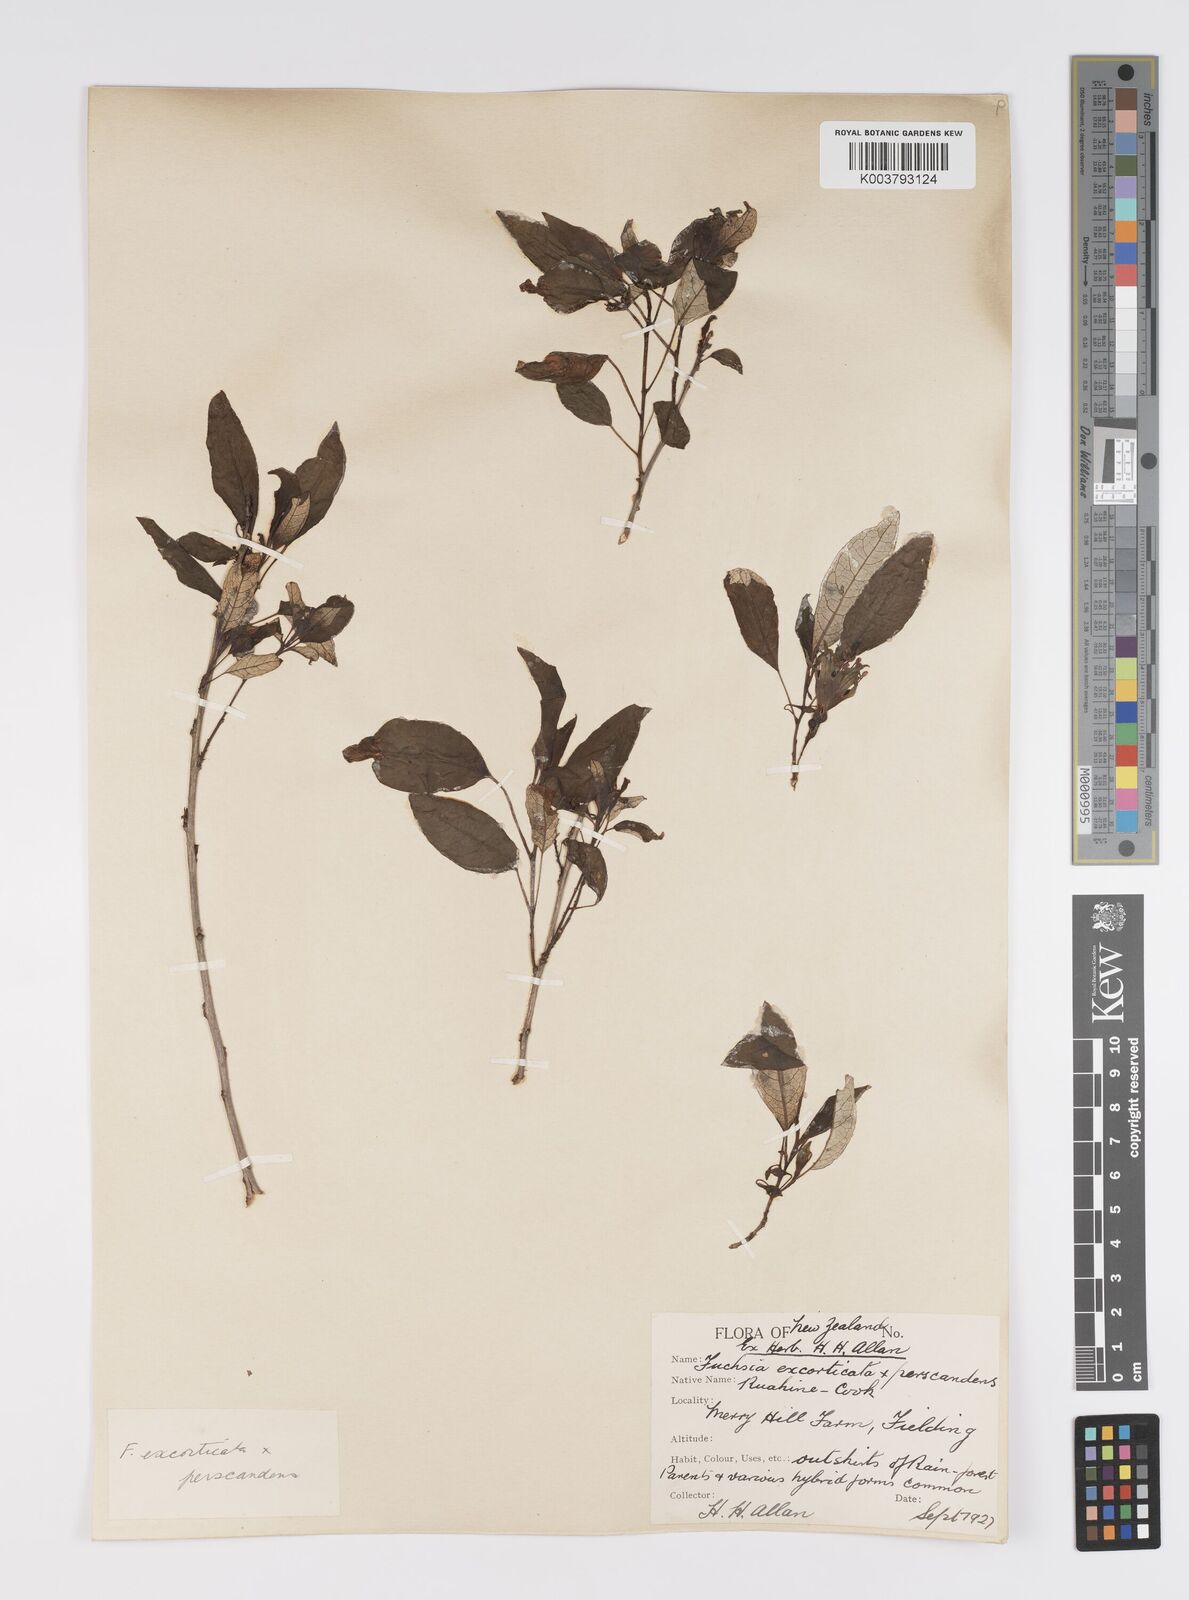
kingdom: Plantae
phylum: Tracheophyta
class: Magnoliopsida
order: Myrtales
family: Onagraceae
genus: Fuchsia
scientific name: Fuchsia excorticata
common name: Tree fuchsia
